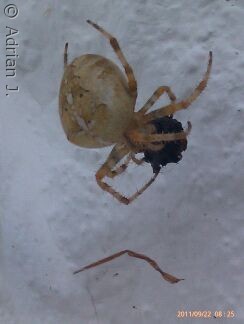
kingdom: Animalia
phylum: Arthropoda
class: Arachnida
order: Araneae
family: Araneidae
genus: Araneus
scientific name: Araneus diadematus
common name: Korsedderkop
